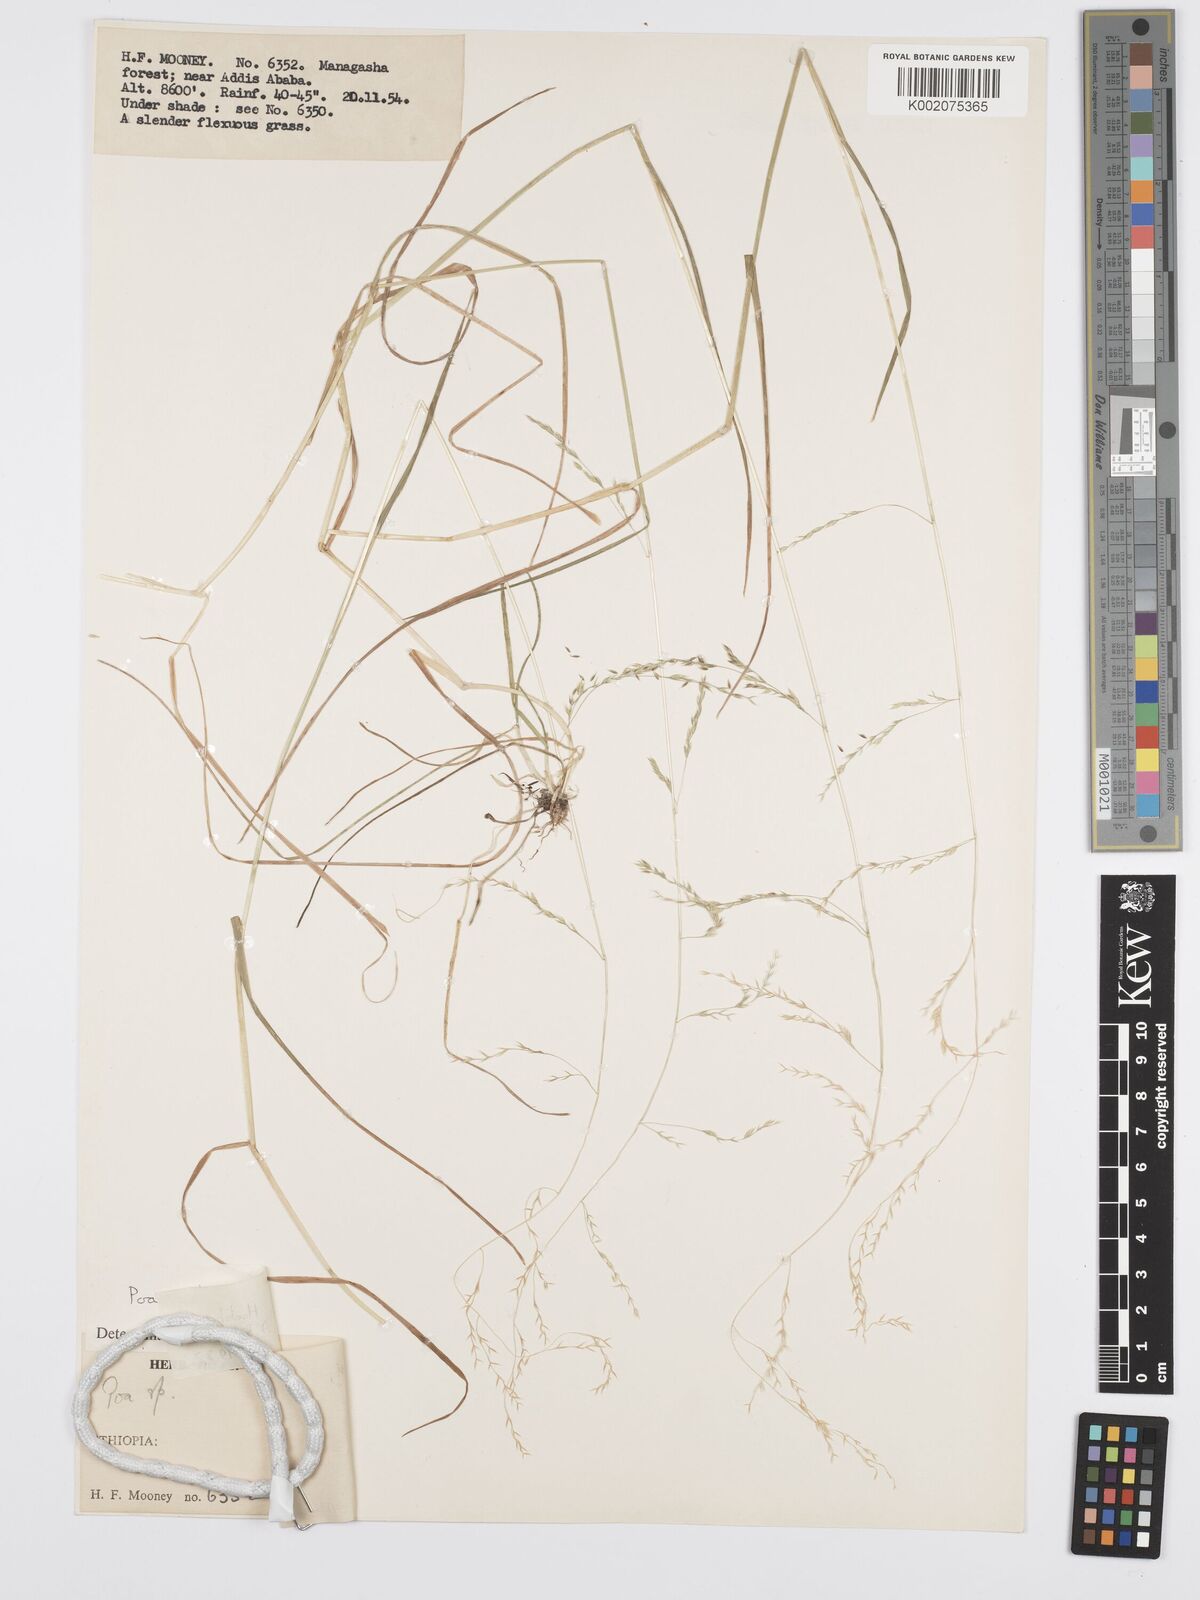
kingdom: Plantae
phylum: Tracheophyta
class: Liliopsida
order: Poales
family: Poaceae
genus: Poa
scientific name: Poa schimperiana
